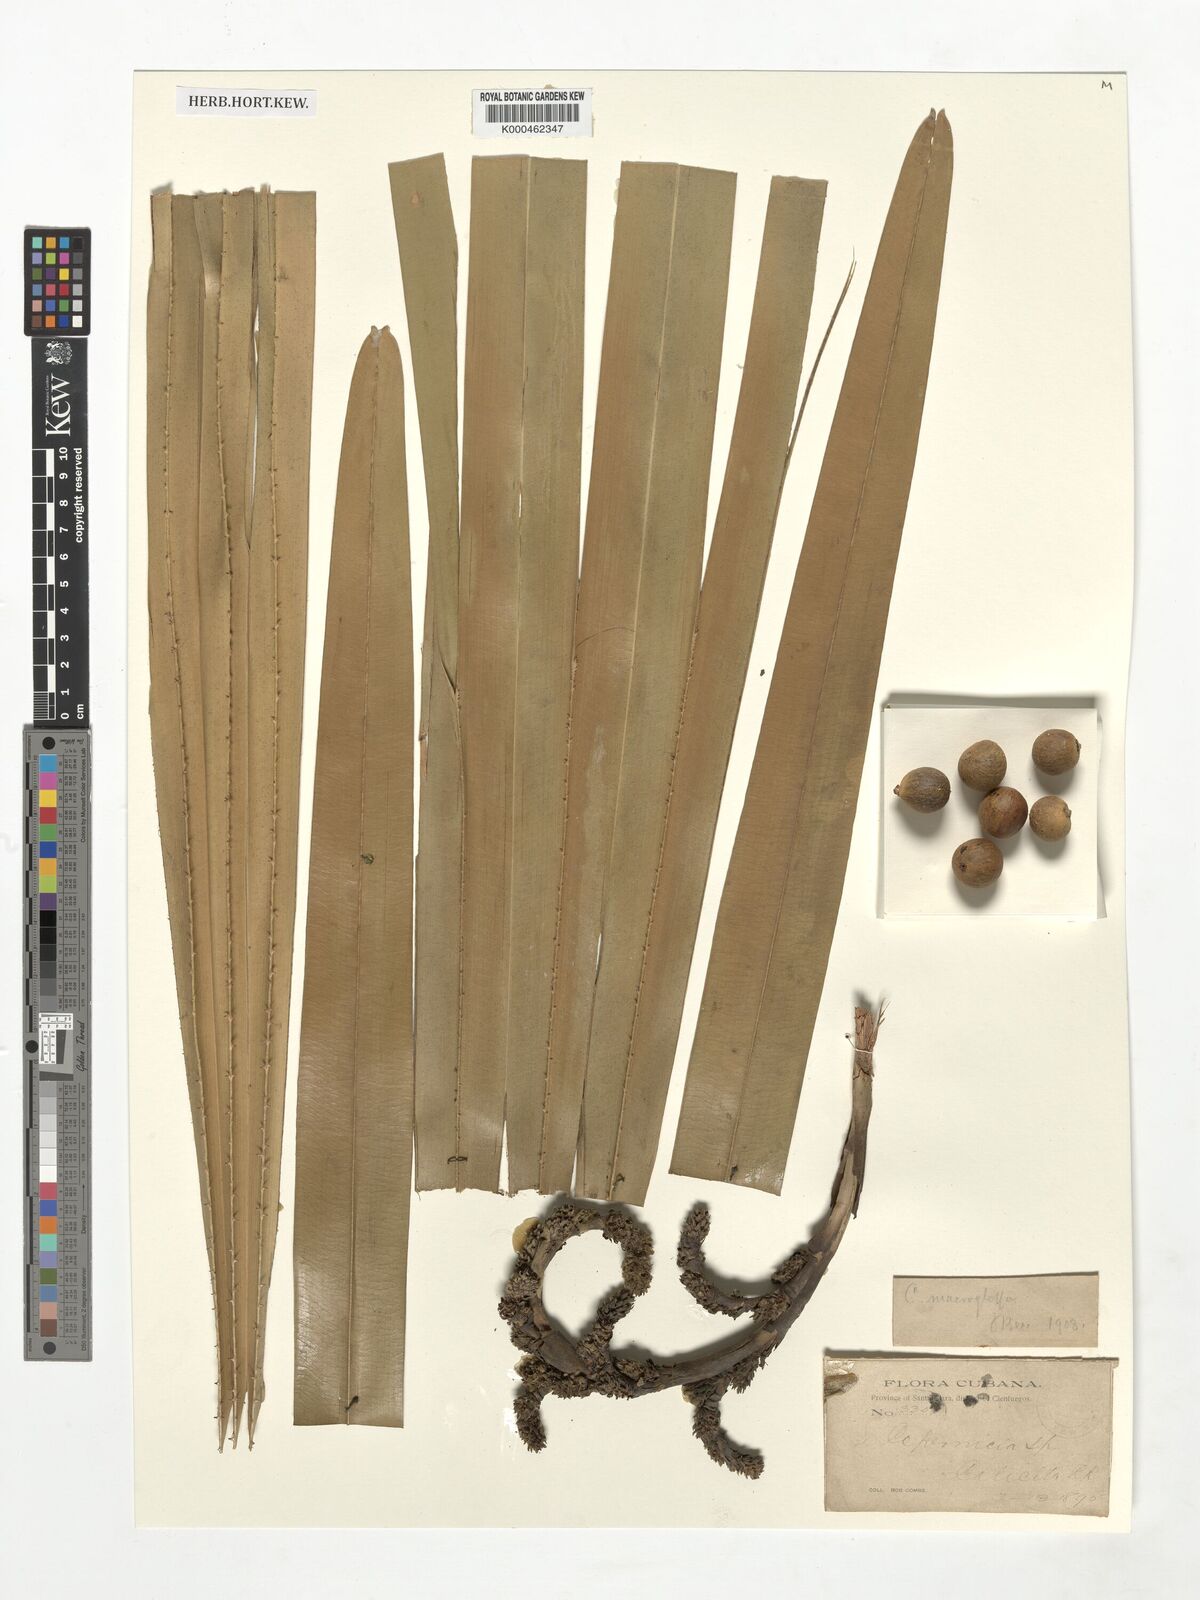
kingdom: Plantae
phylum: Tracheophyta
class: Liliopsida
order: Arecales
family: Arecaceae
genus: Copernicia
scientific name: Copernicia
